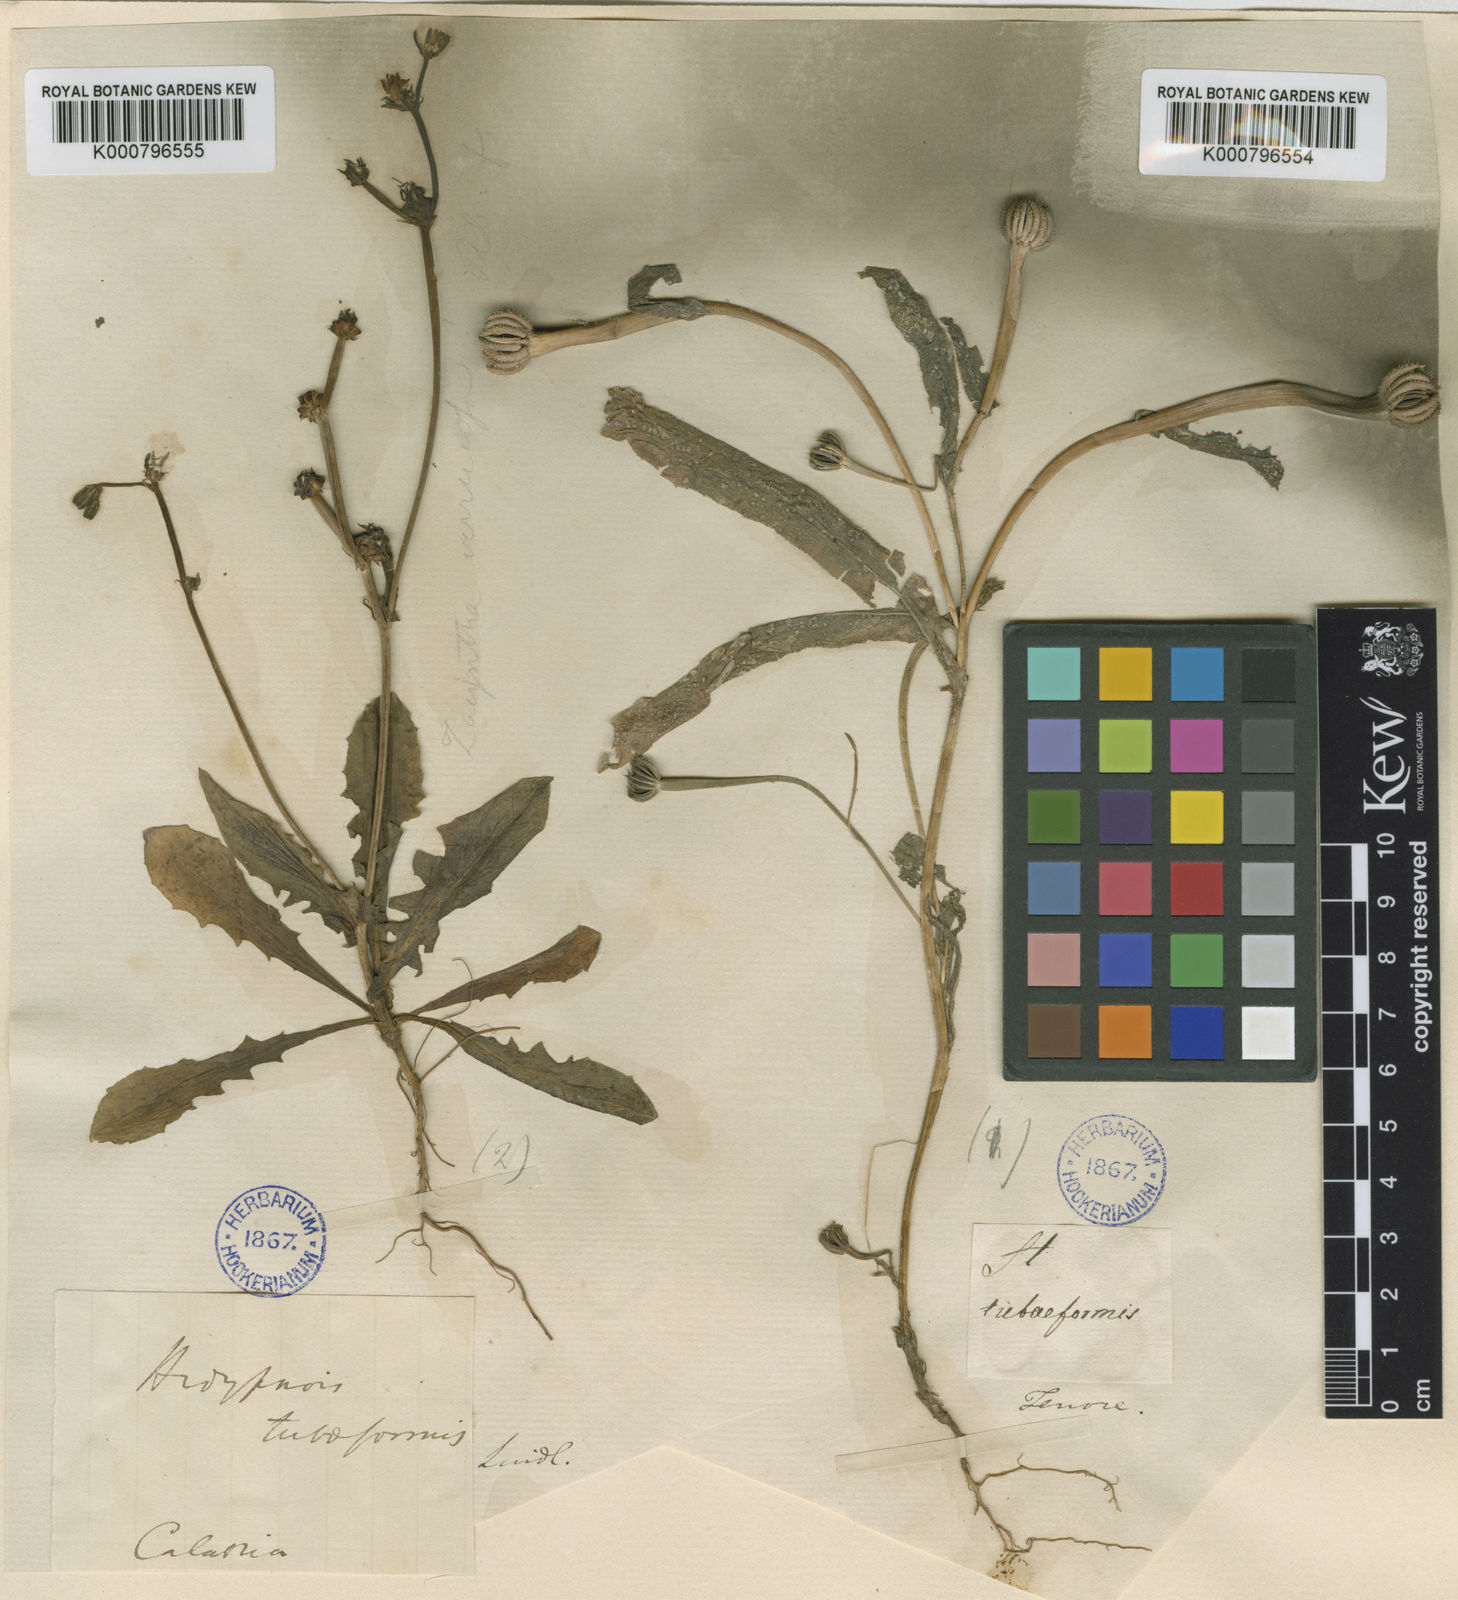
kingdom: Plantae
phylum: Tracheophyta
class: Magnoliopsida
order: Asterales
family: Asteraceae
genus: Hedypnois
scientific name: Hedypnois rhagadioloides
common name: Cretan weed
